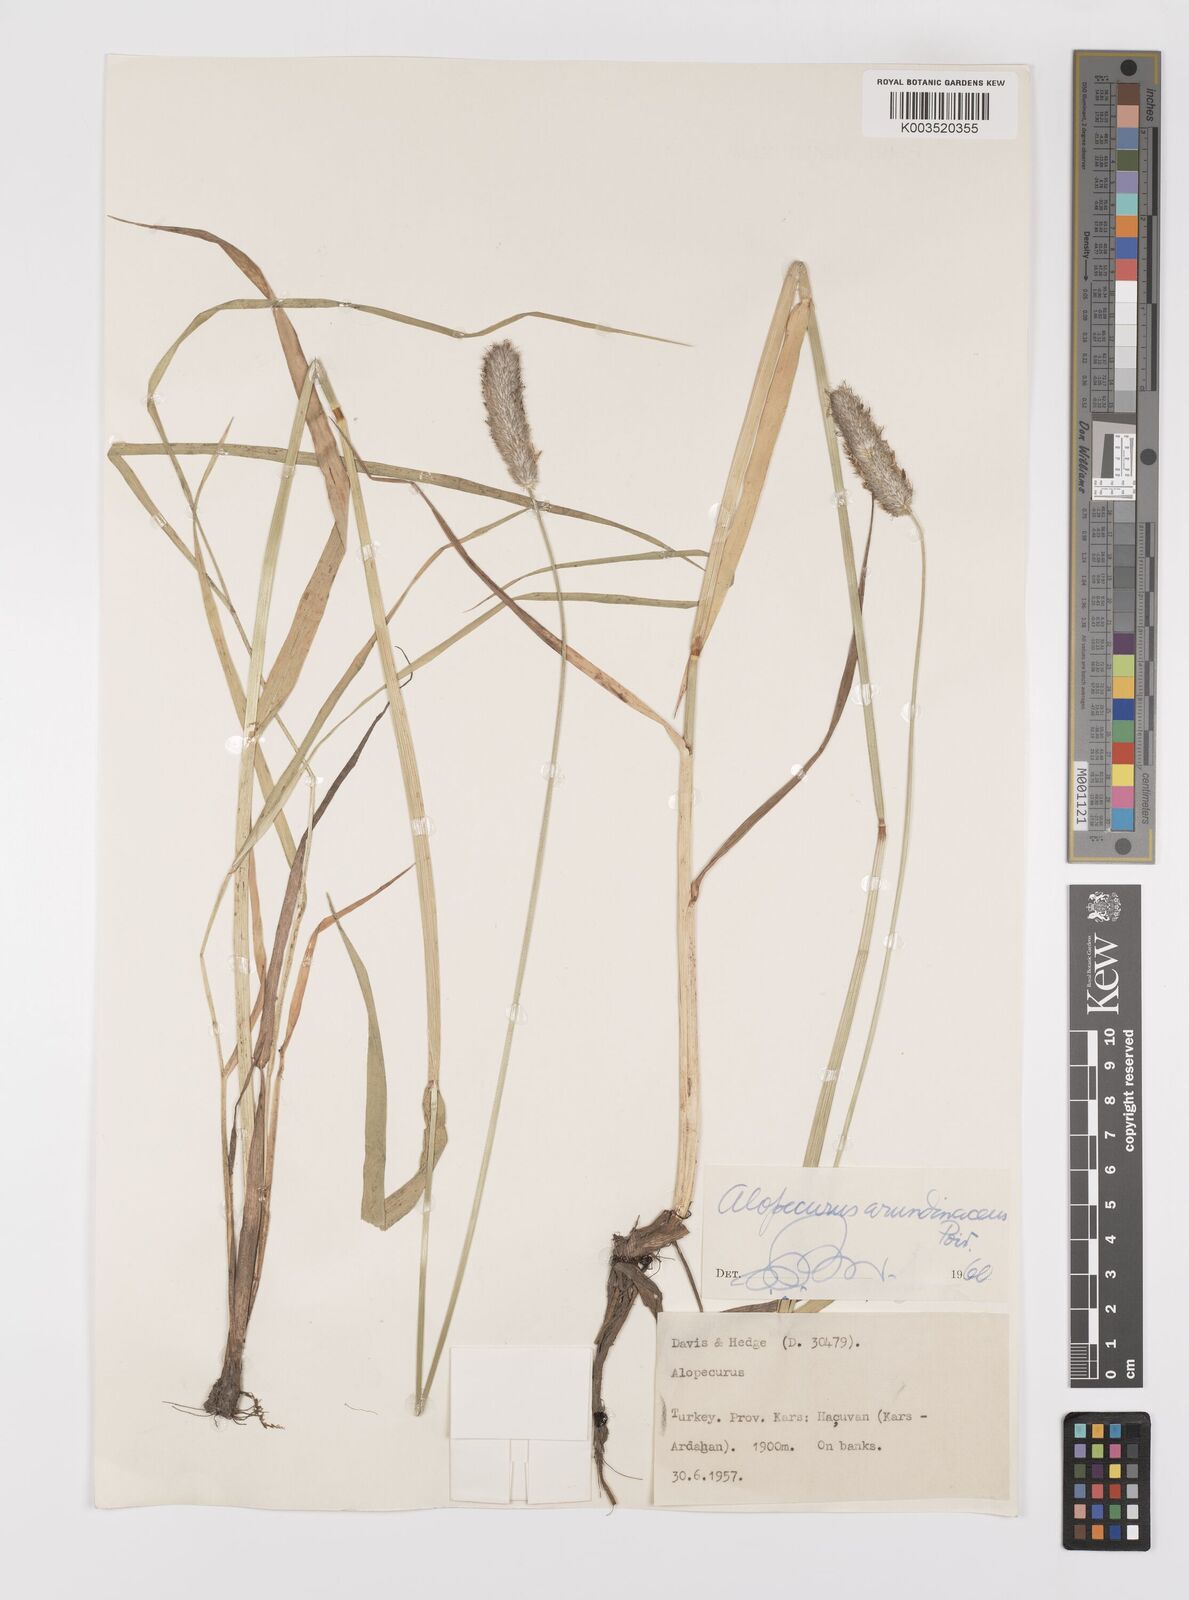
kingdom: Plantae
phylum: Tracheophyta
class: Liliopsida
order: Poales
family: Poaceae
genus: Alopecurus
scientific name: Alopecurus arundinaceus
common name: Creeping meadow foxtail
